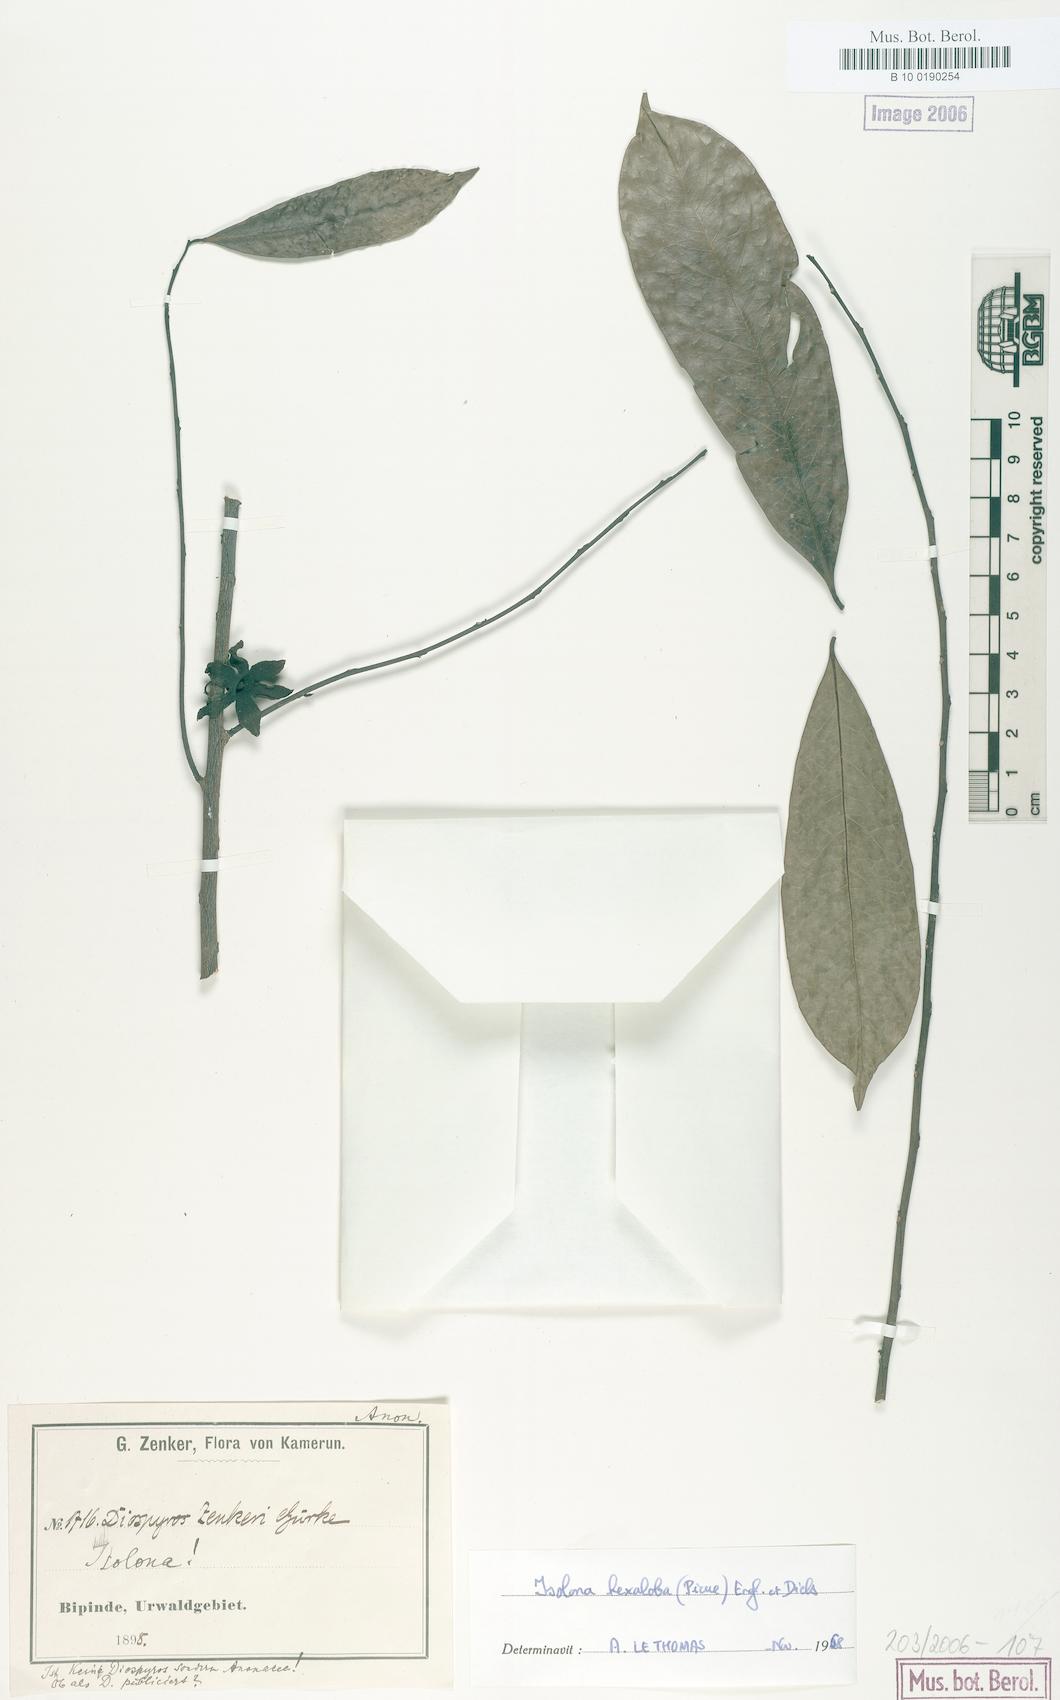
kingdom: Plantae
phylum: Tracheophyta
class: Magnoliopsida
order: Magnoliales
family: Annonaceae
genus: Isolona
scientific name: Isolona hexaloba
